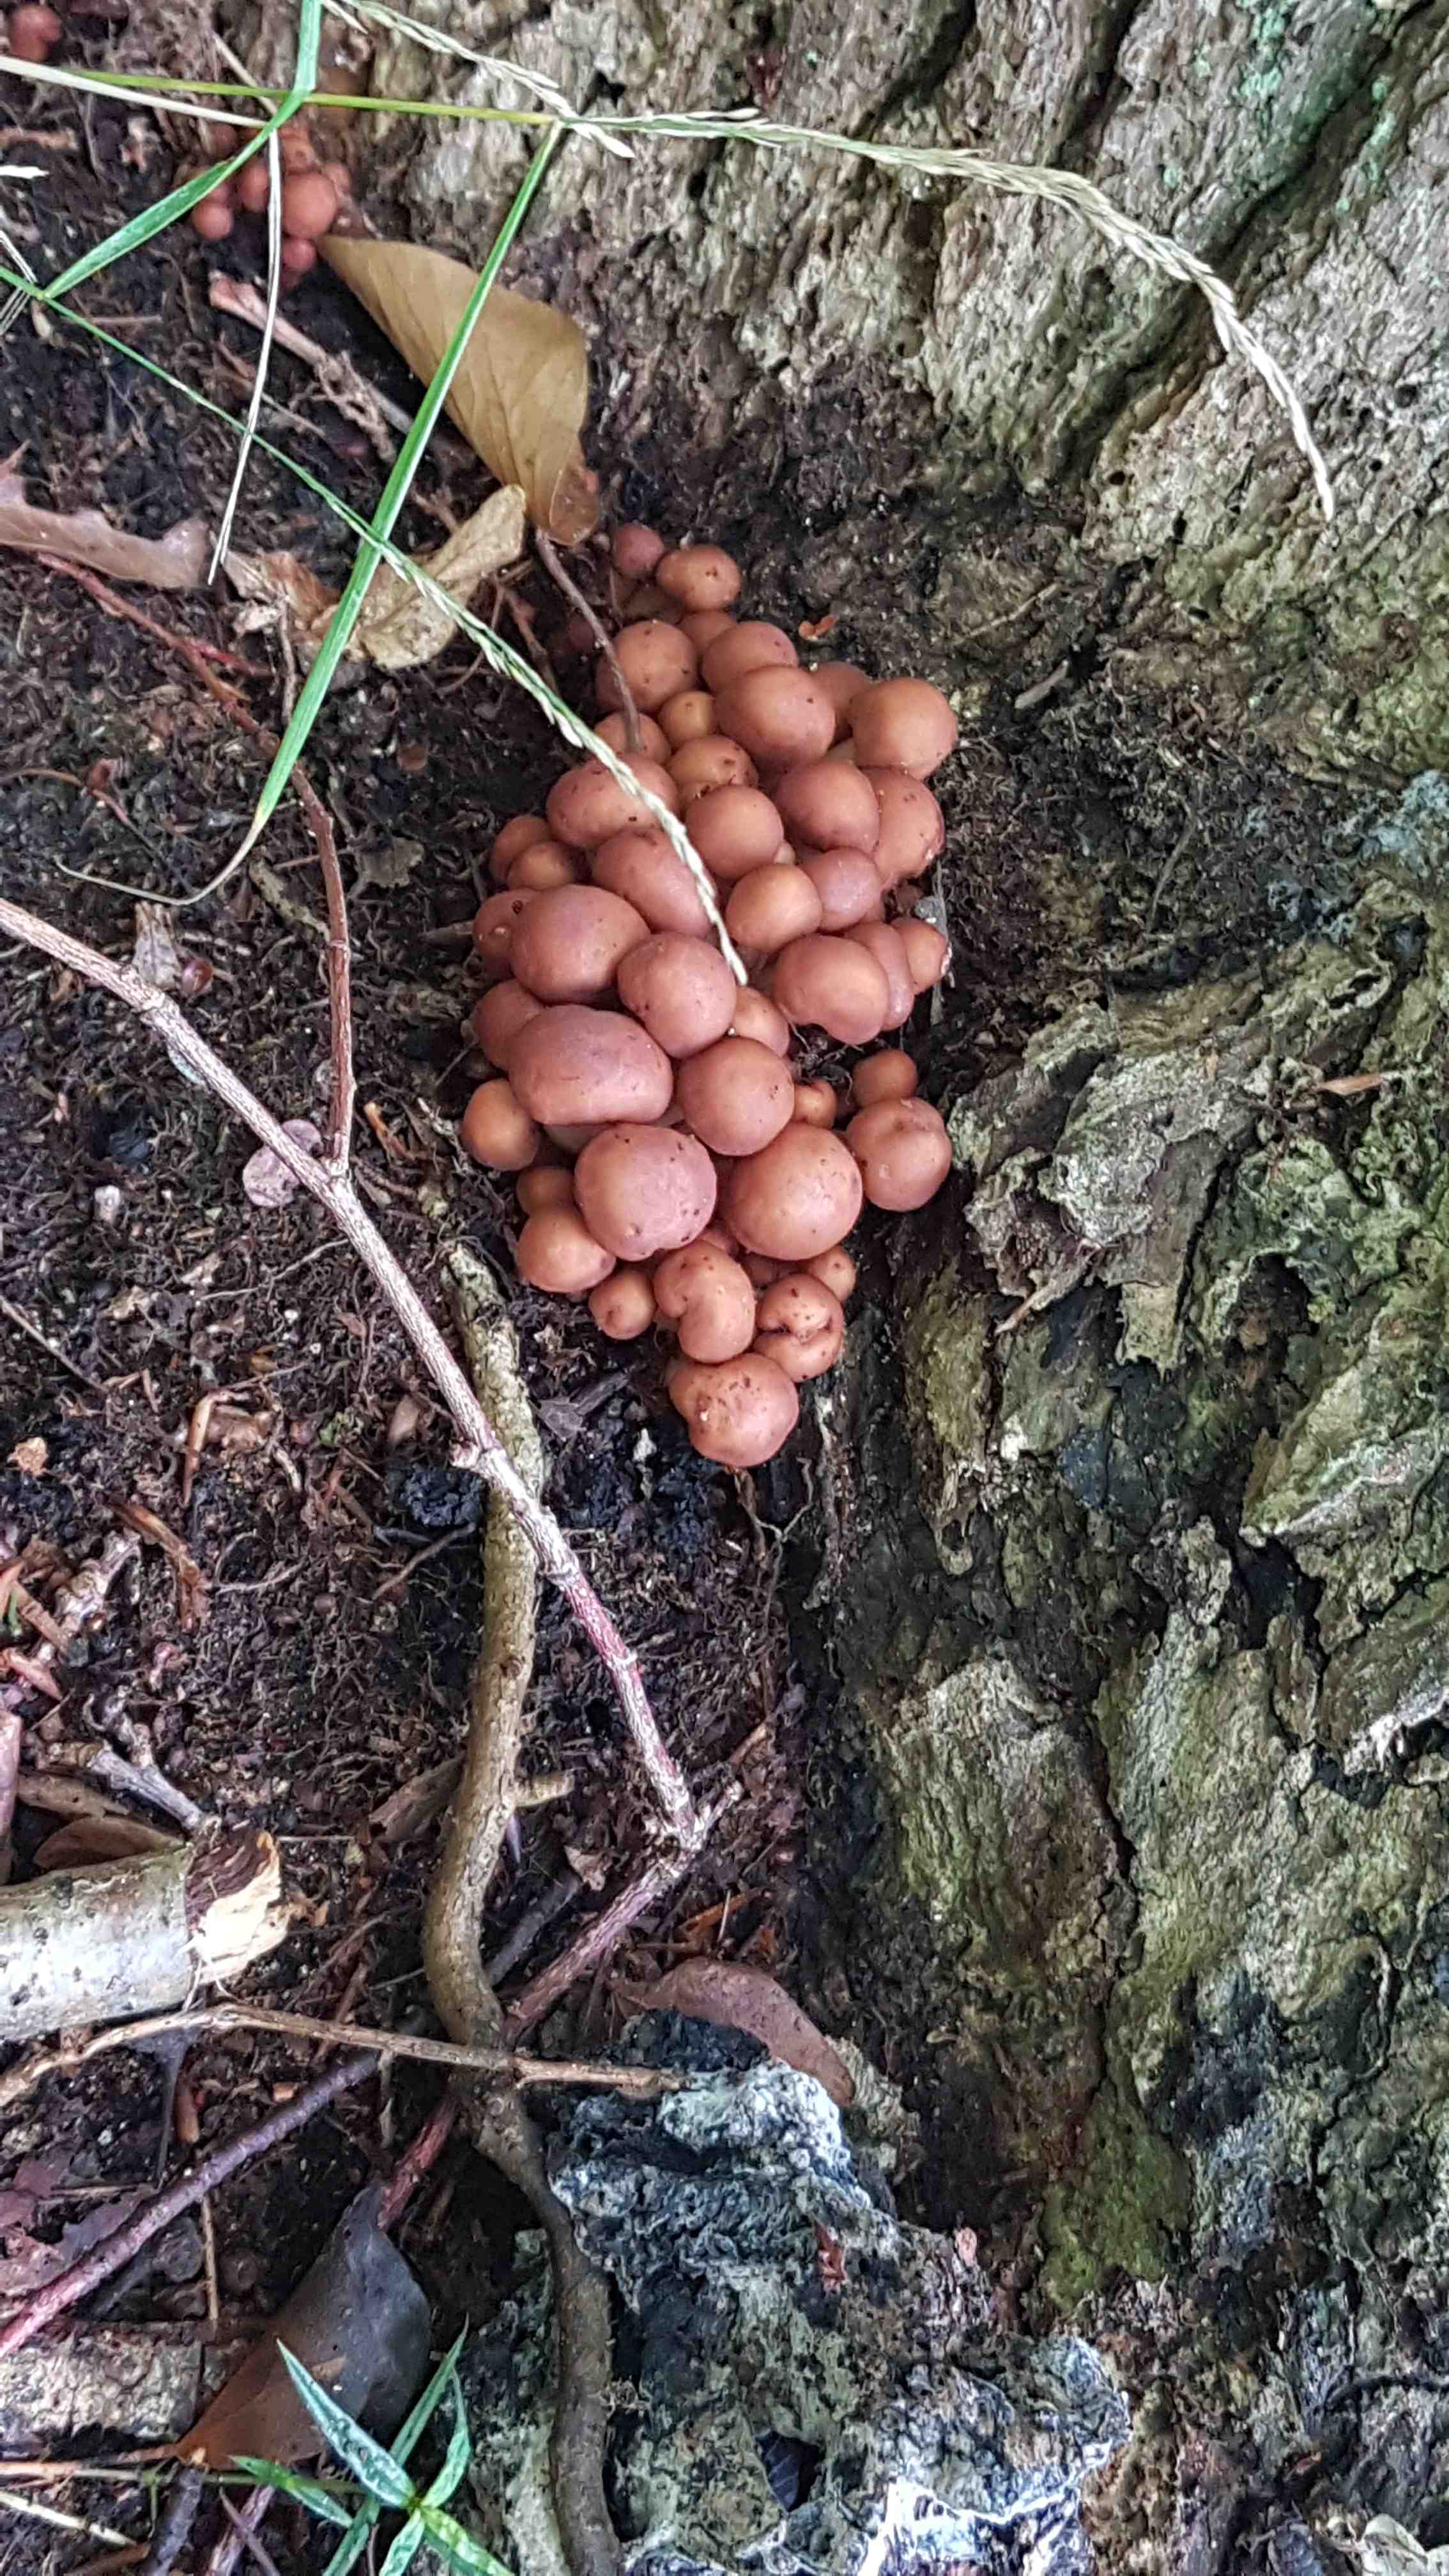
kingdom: Fungi
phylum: Basidiomycota
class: Agaricomycetes
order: Agaricales
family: Omphalotaceae
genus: Gymnopus
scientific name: Gymnopus fusipes
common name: tenstokket fladhat
